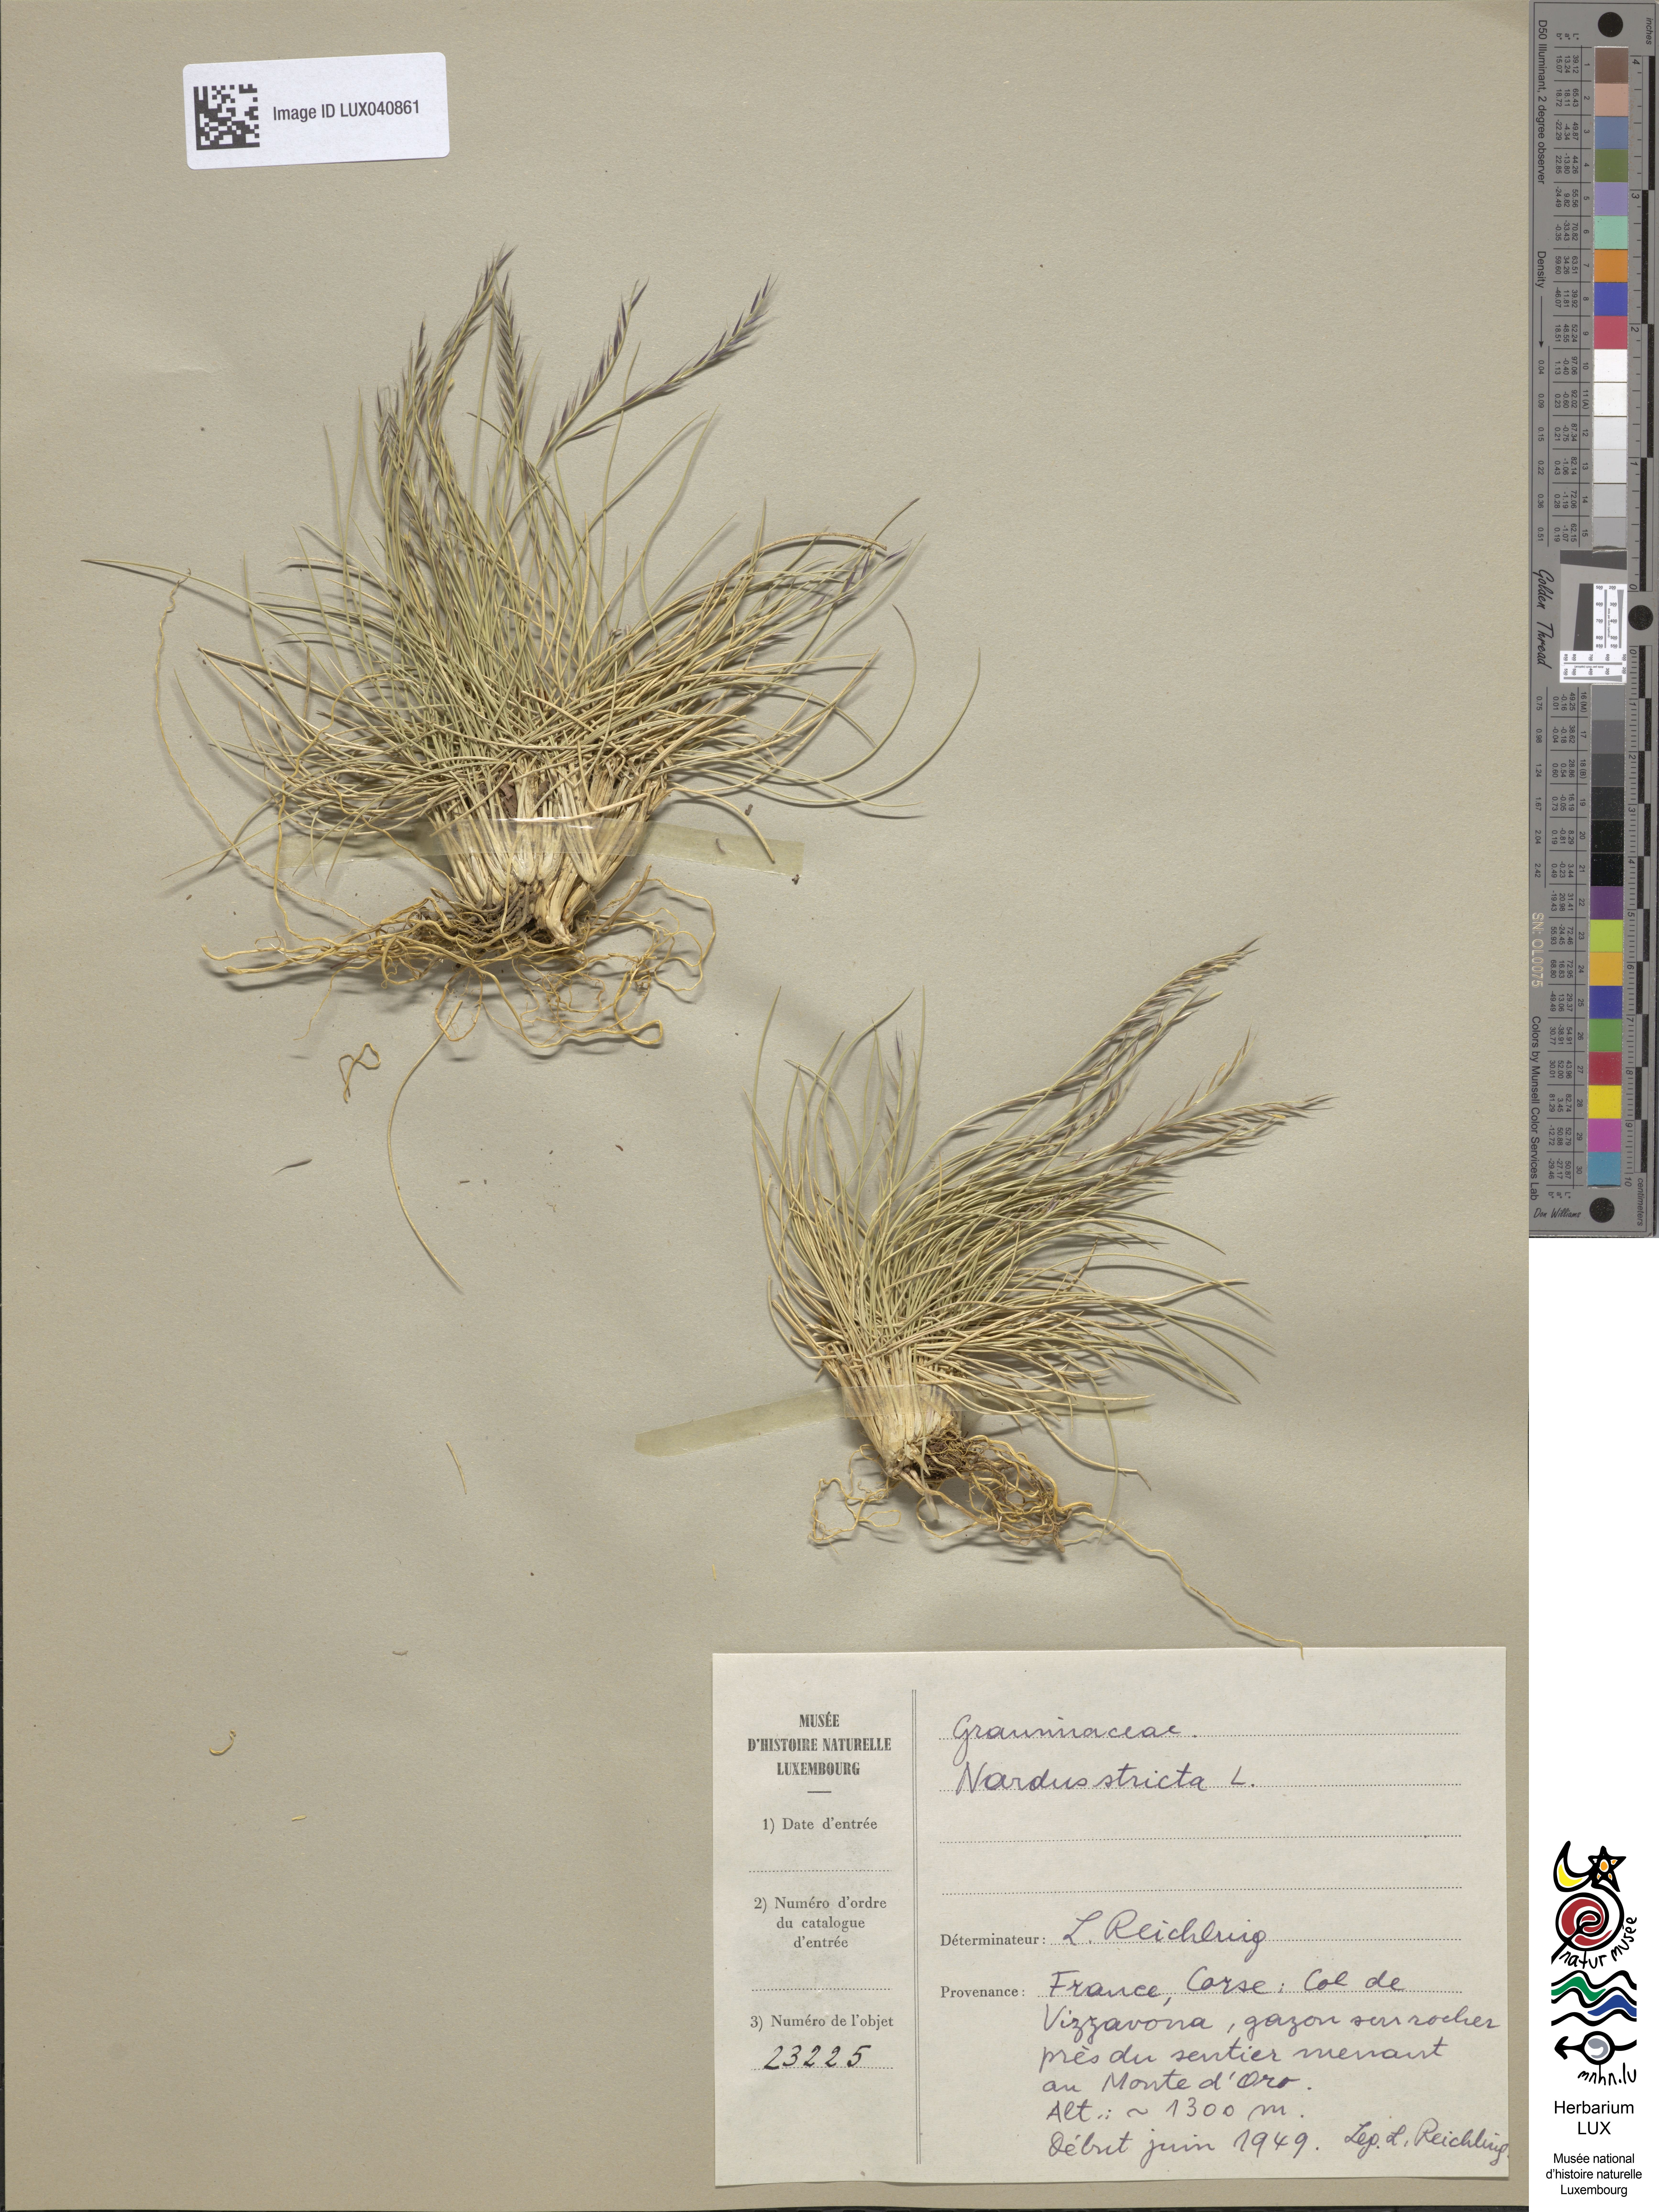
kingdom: Plantae
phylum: Tracheophyta
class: Liliopsida
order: Poales
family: Poaceae
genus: Nardus
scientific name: Nardus stricta
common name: Mat-grass
